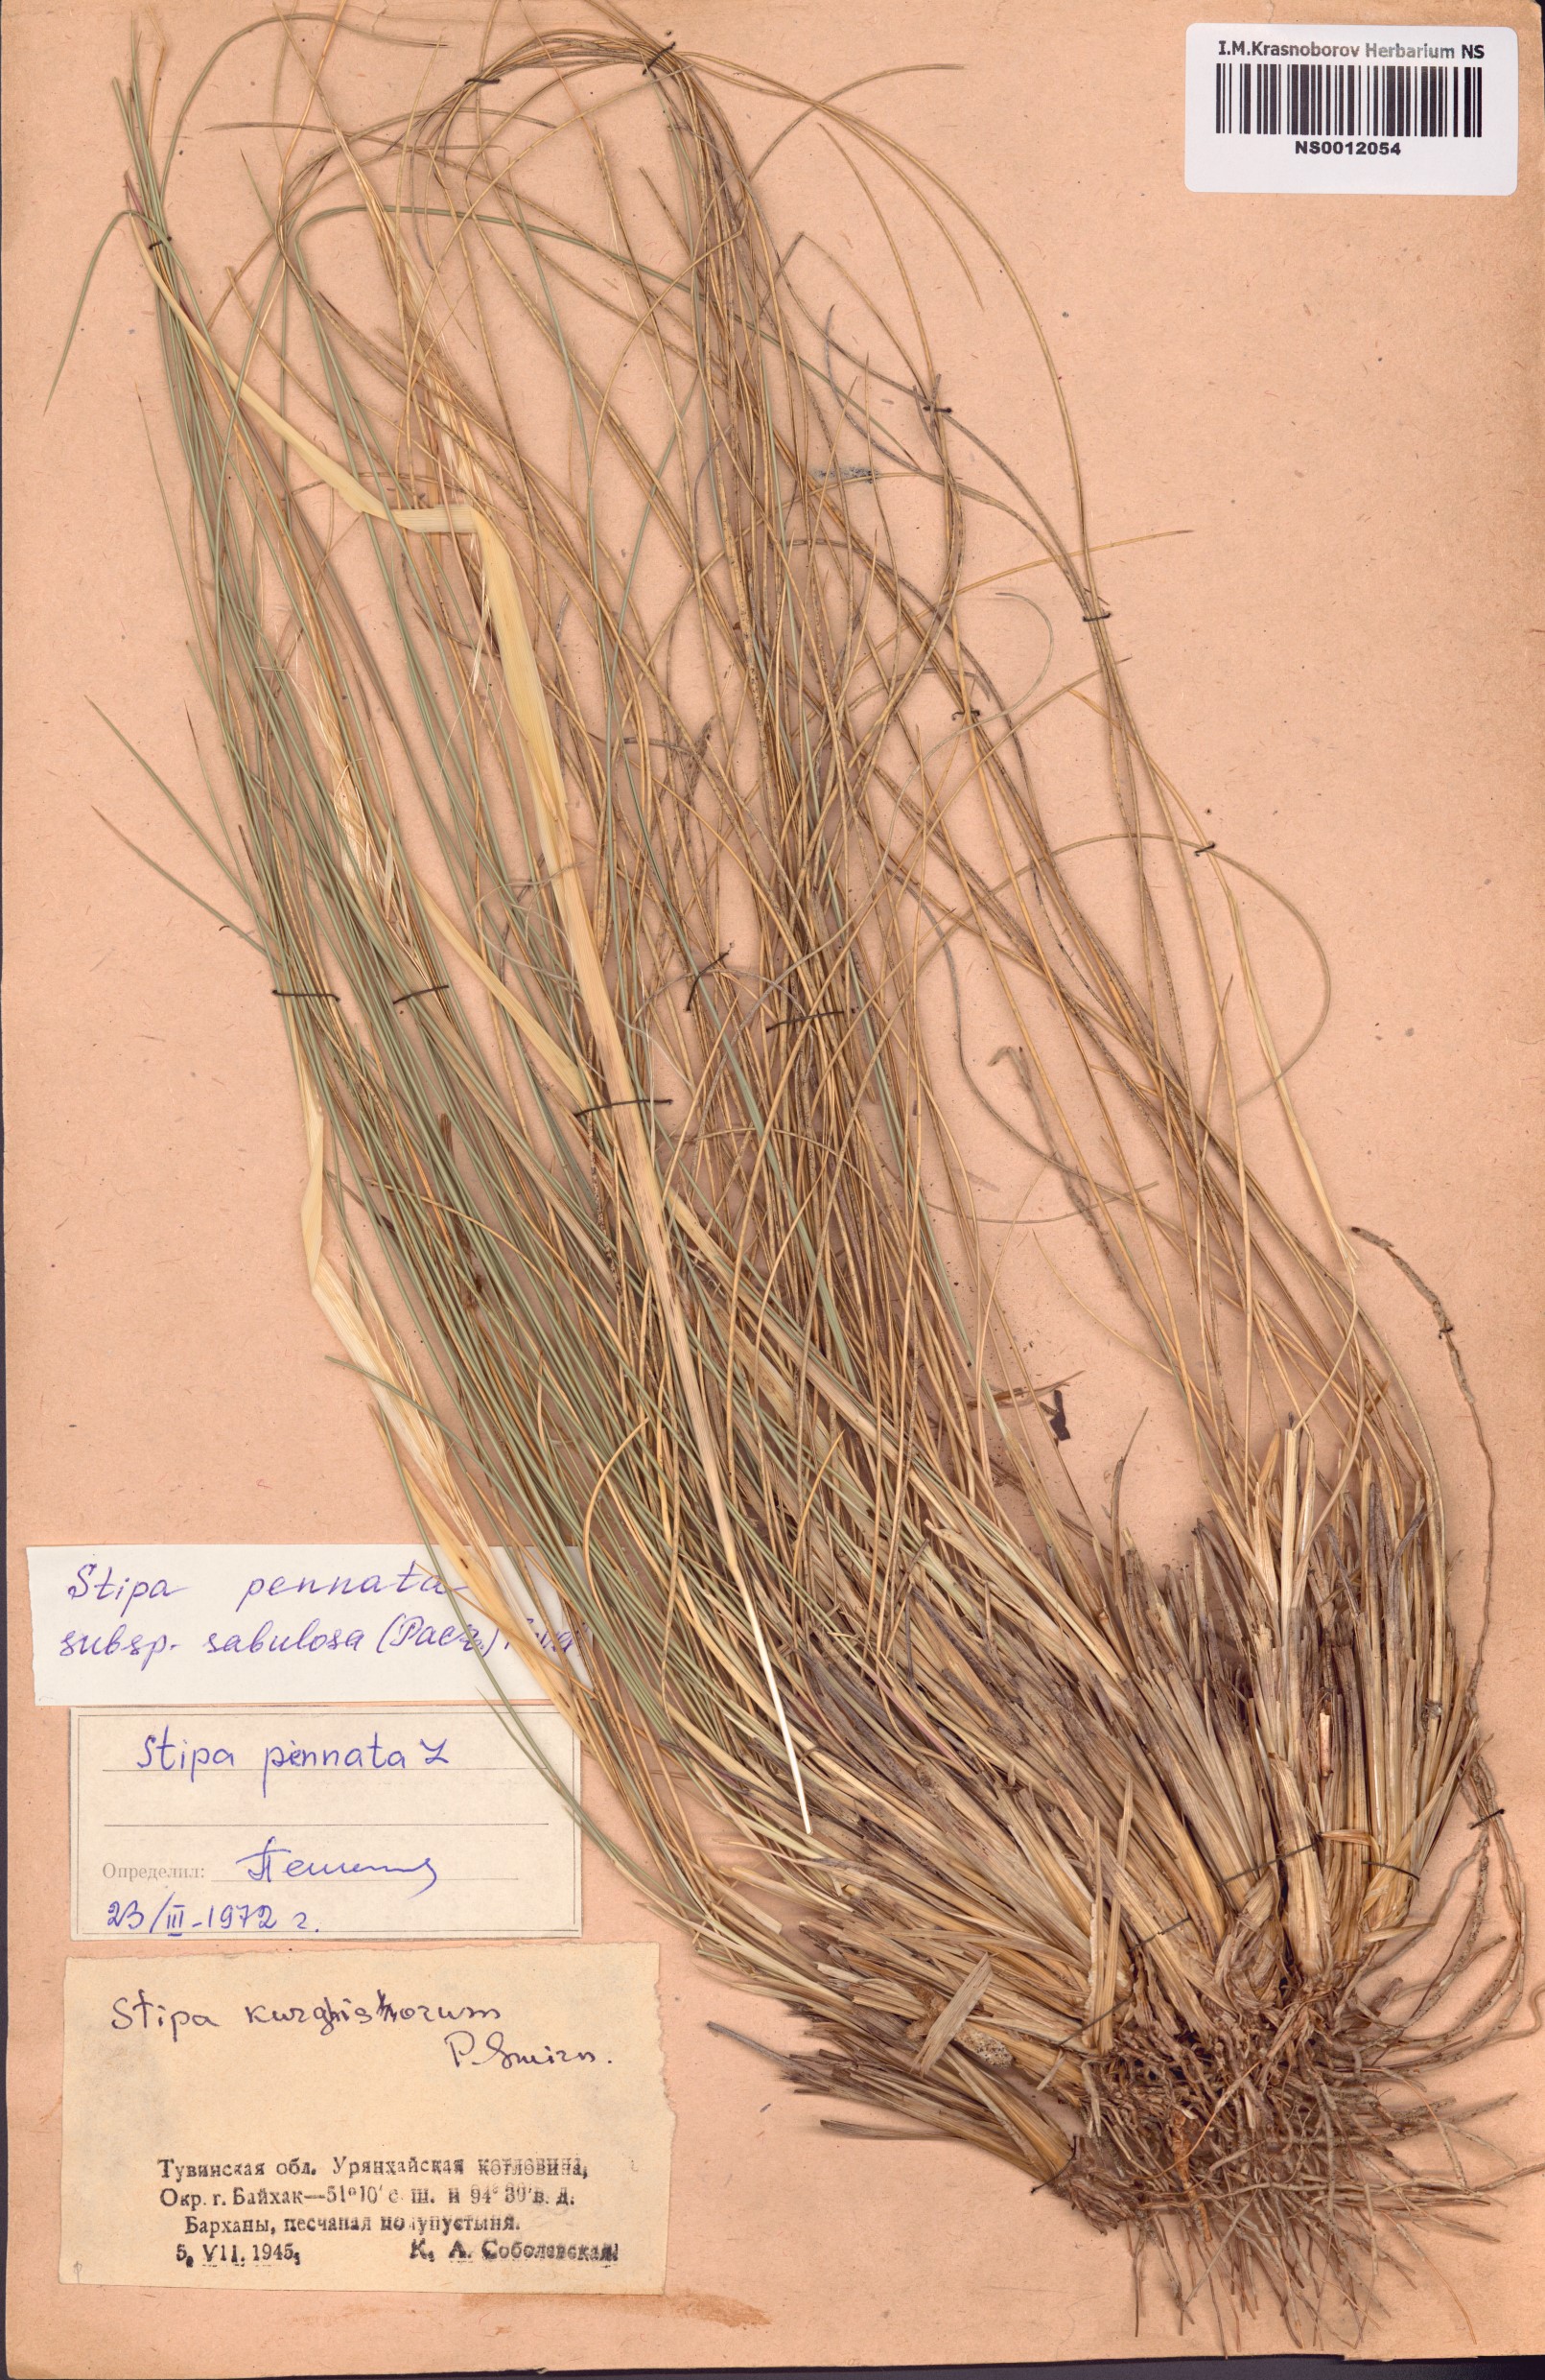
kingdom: Plantae
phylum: Tracheophyta
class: Liliopsida
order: Poales
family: Poaceae
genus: Stipa
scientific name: Stipa borysthenica
